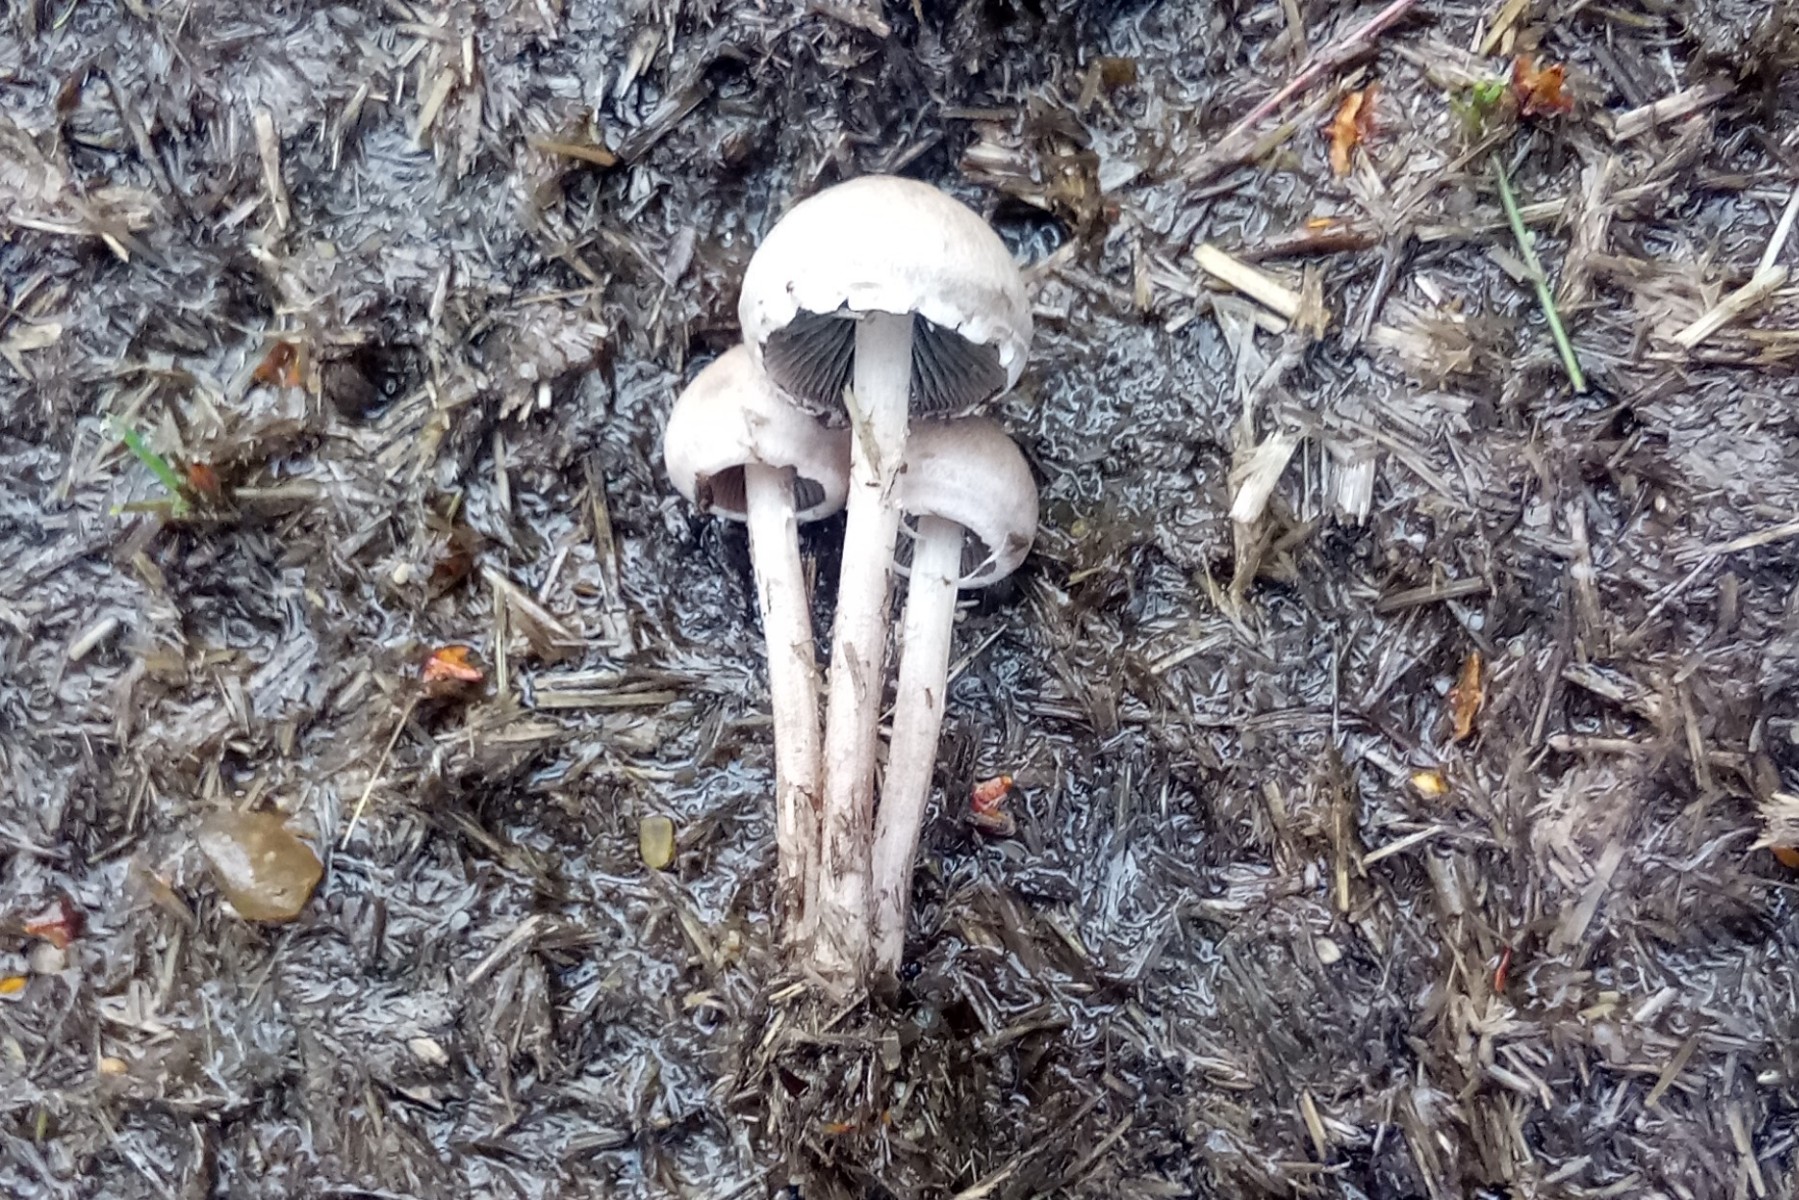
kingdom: Fungi
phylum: Basidiomycota
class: Agaricomycetes
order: Agaricales
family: Bolbitiaceae
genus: Panaeolus
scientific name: Panaeolus papilionaceus
